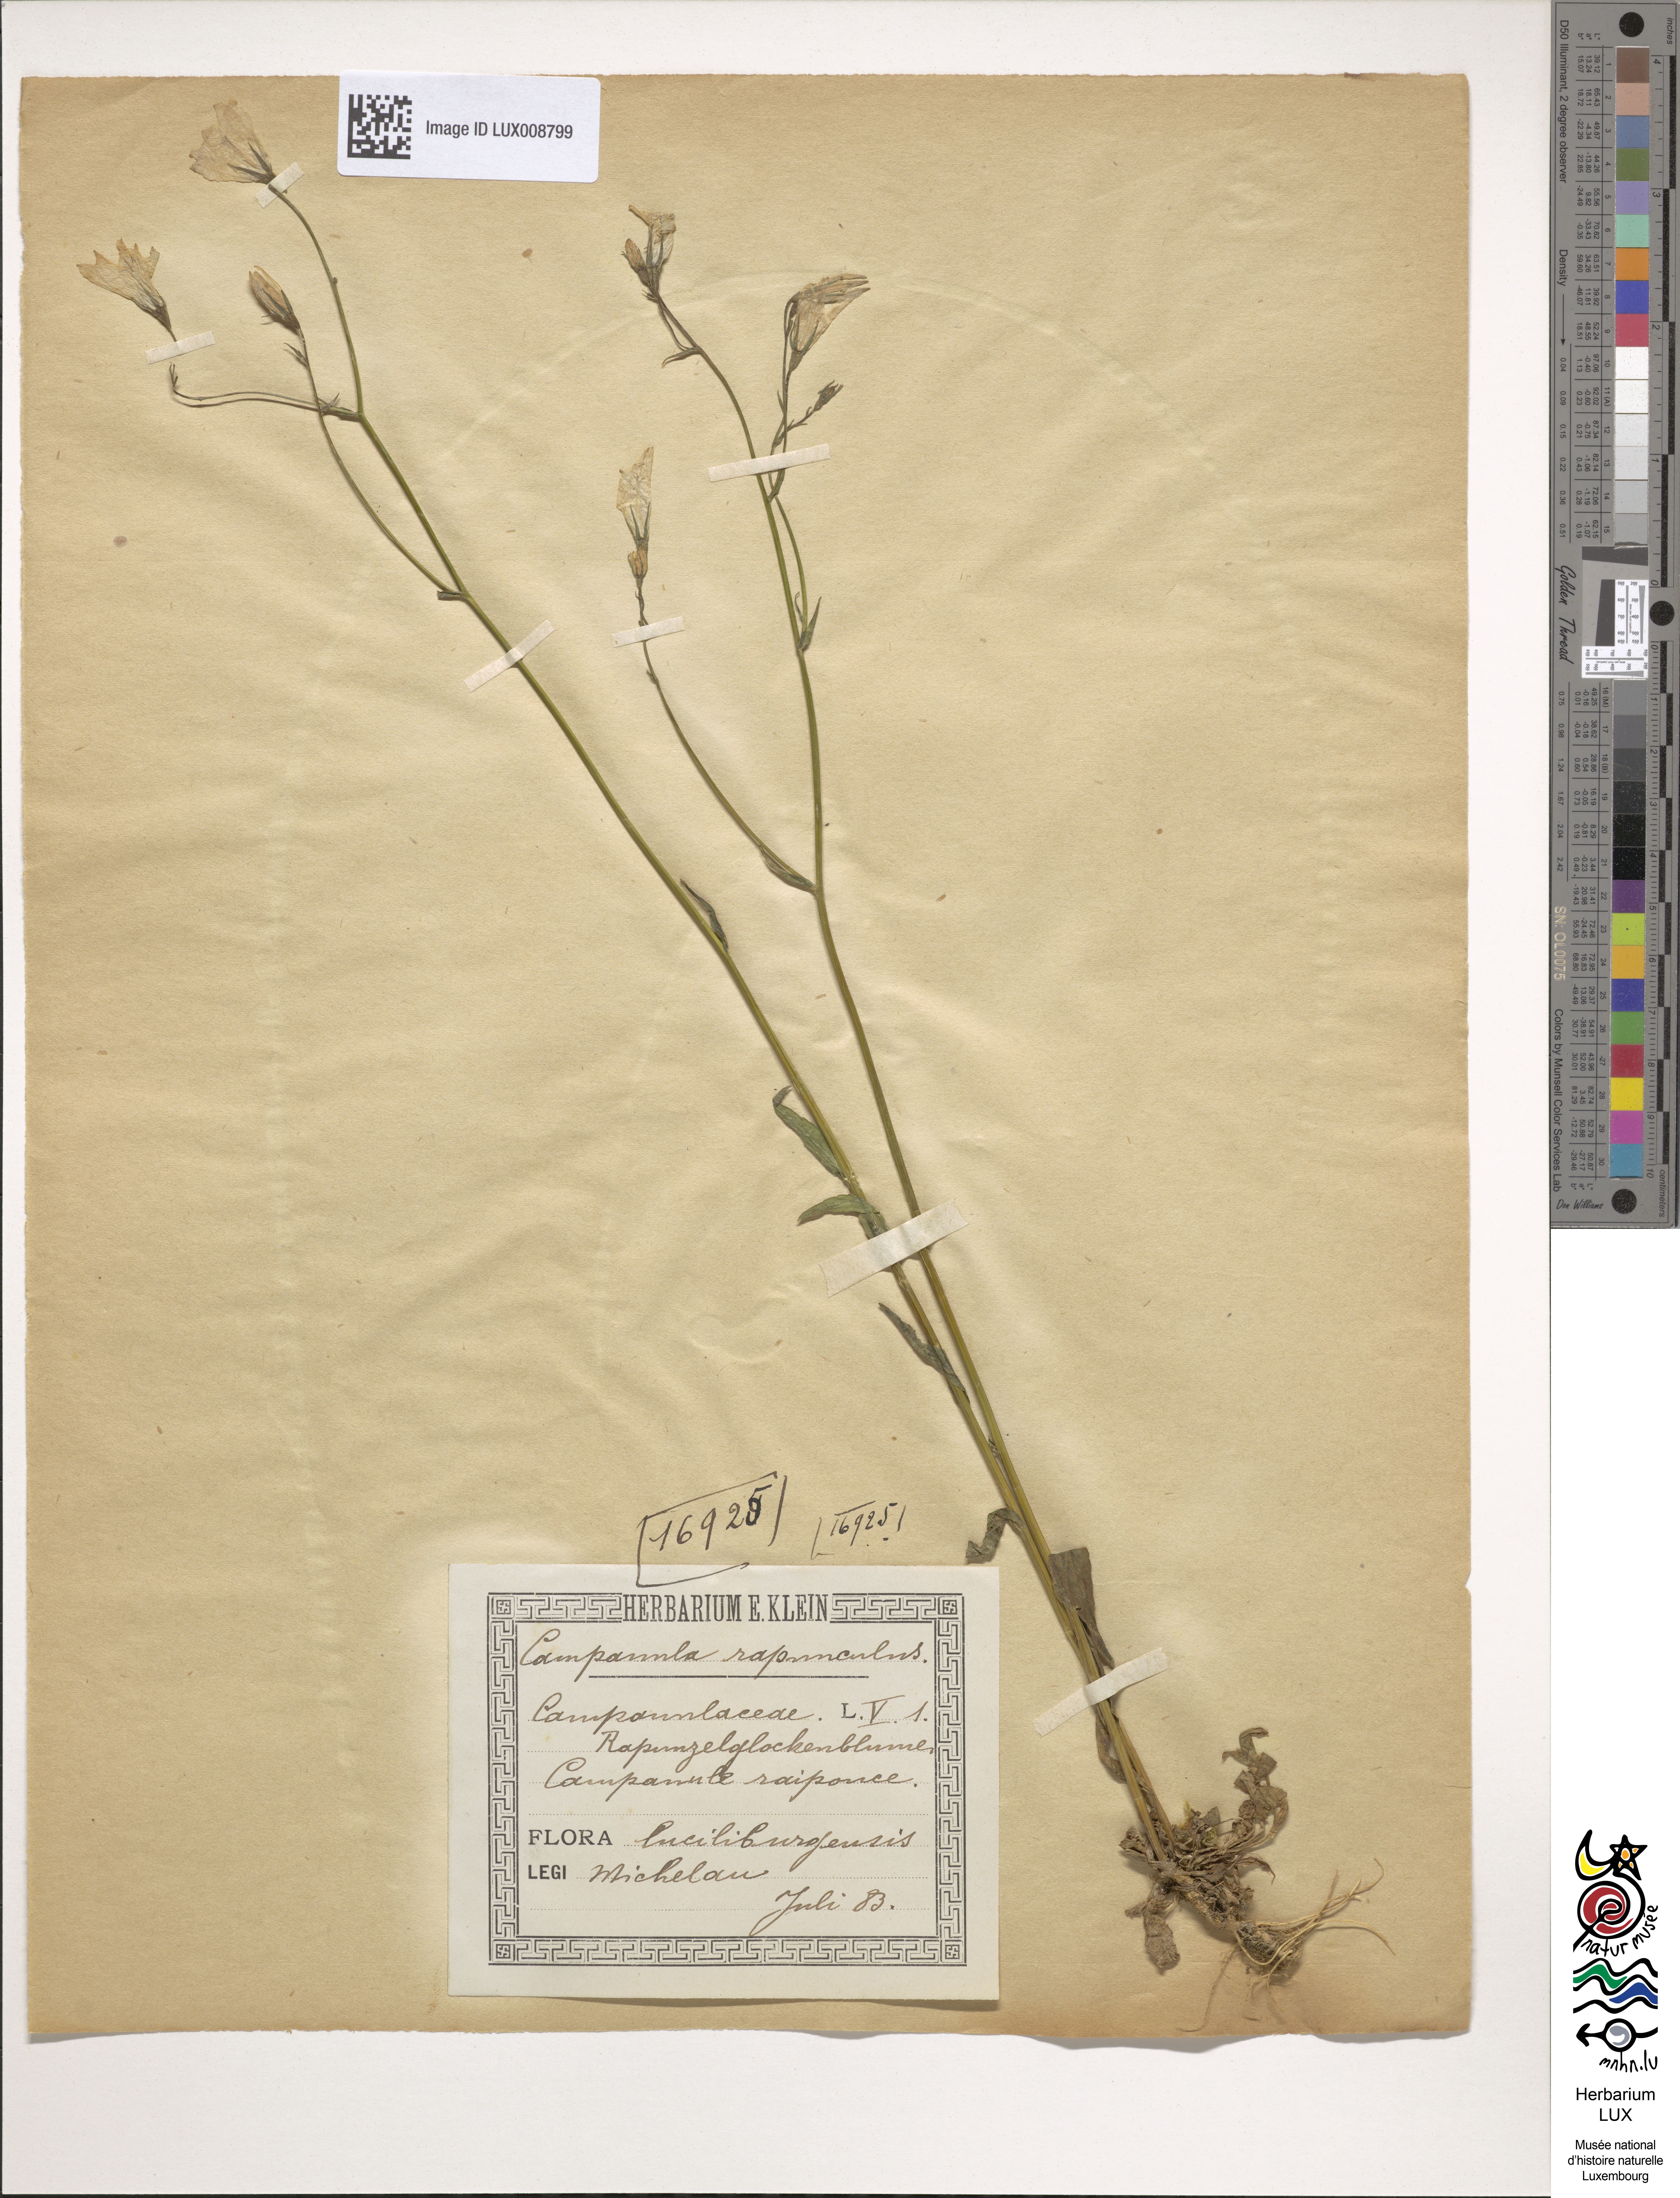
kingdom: Plantae
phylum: Tracheophyta
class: Magnoliopsida
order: Asterales
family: Campanulaceae
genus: Campanula
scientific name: Campanula rapunculus
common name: Rampion bellflower
